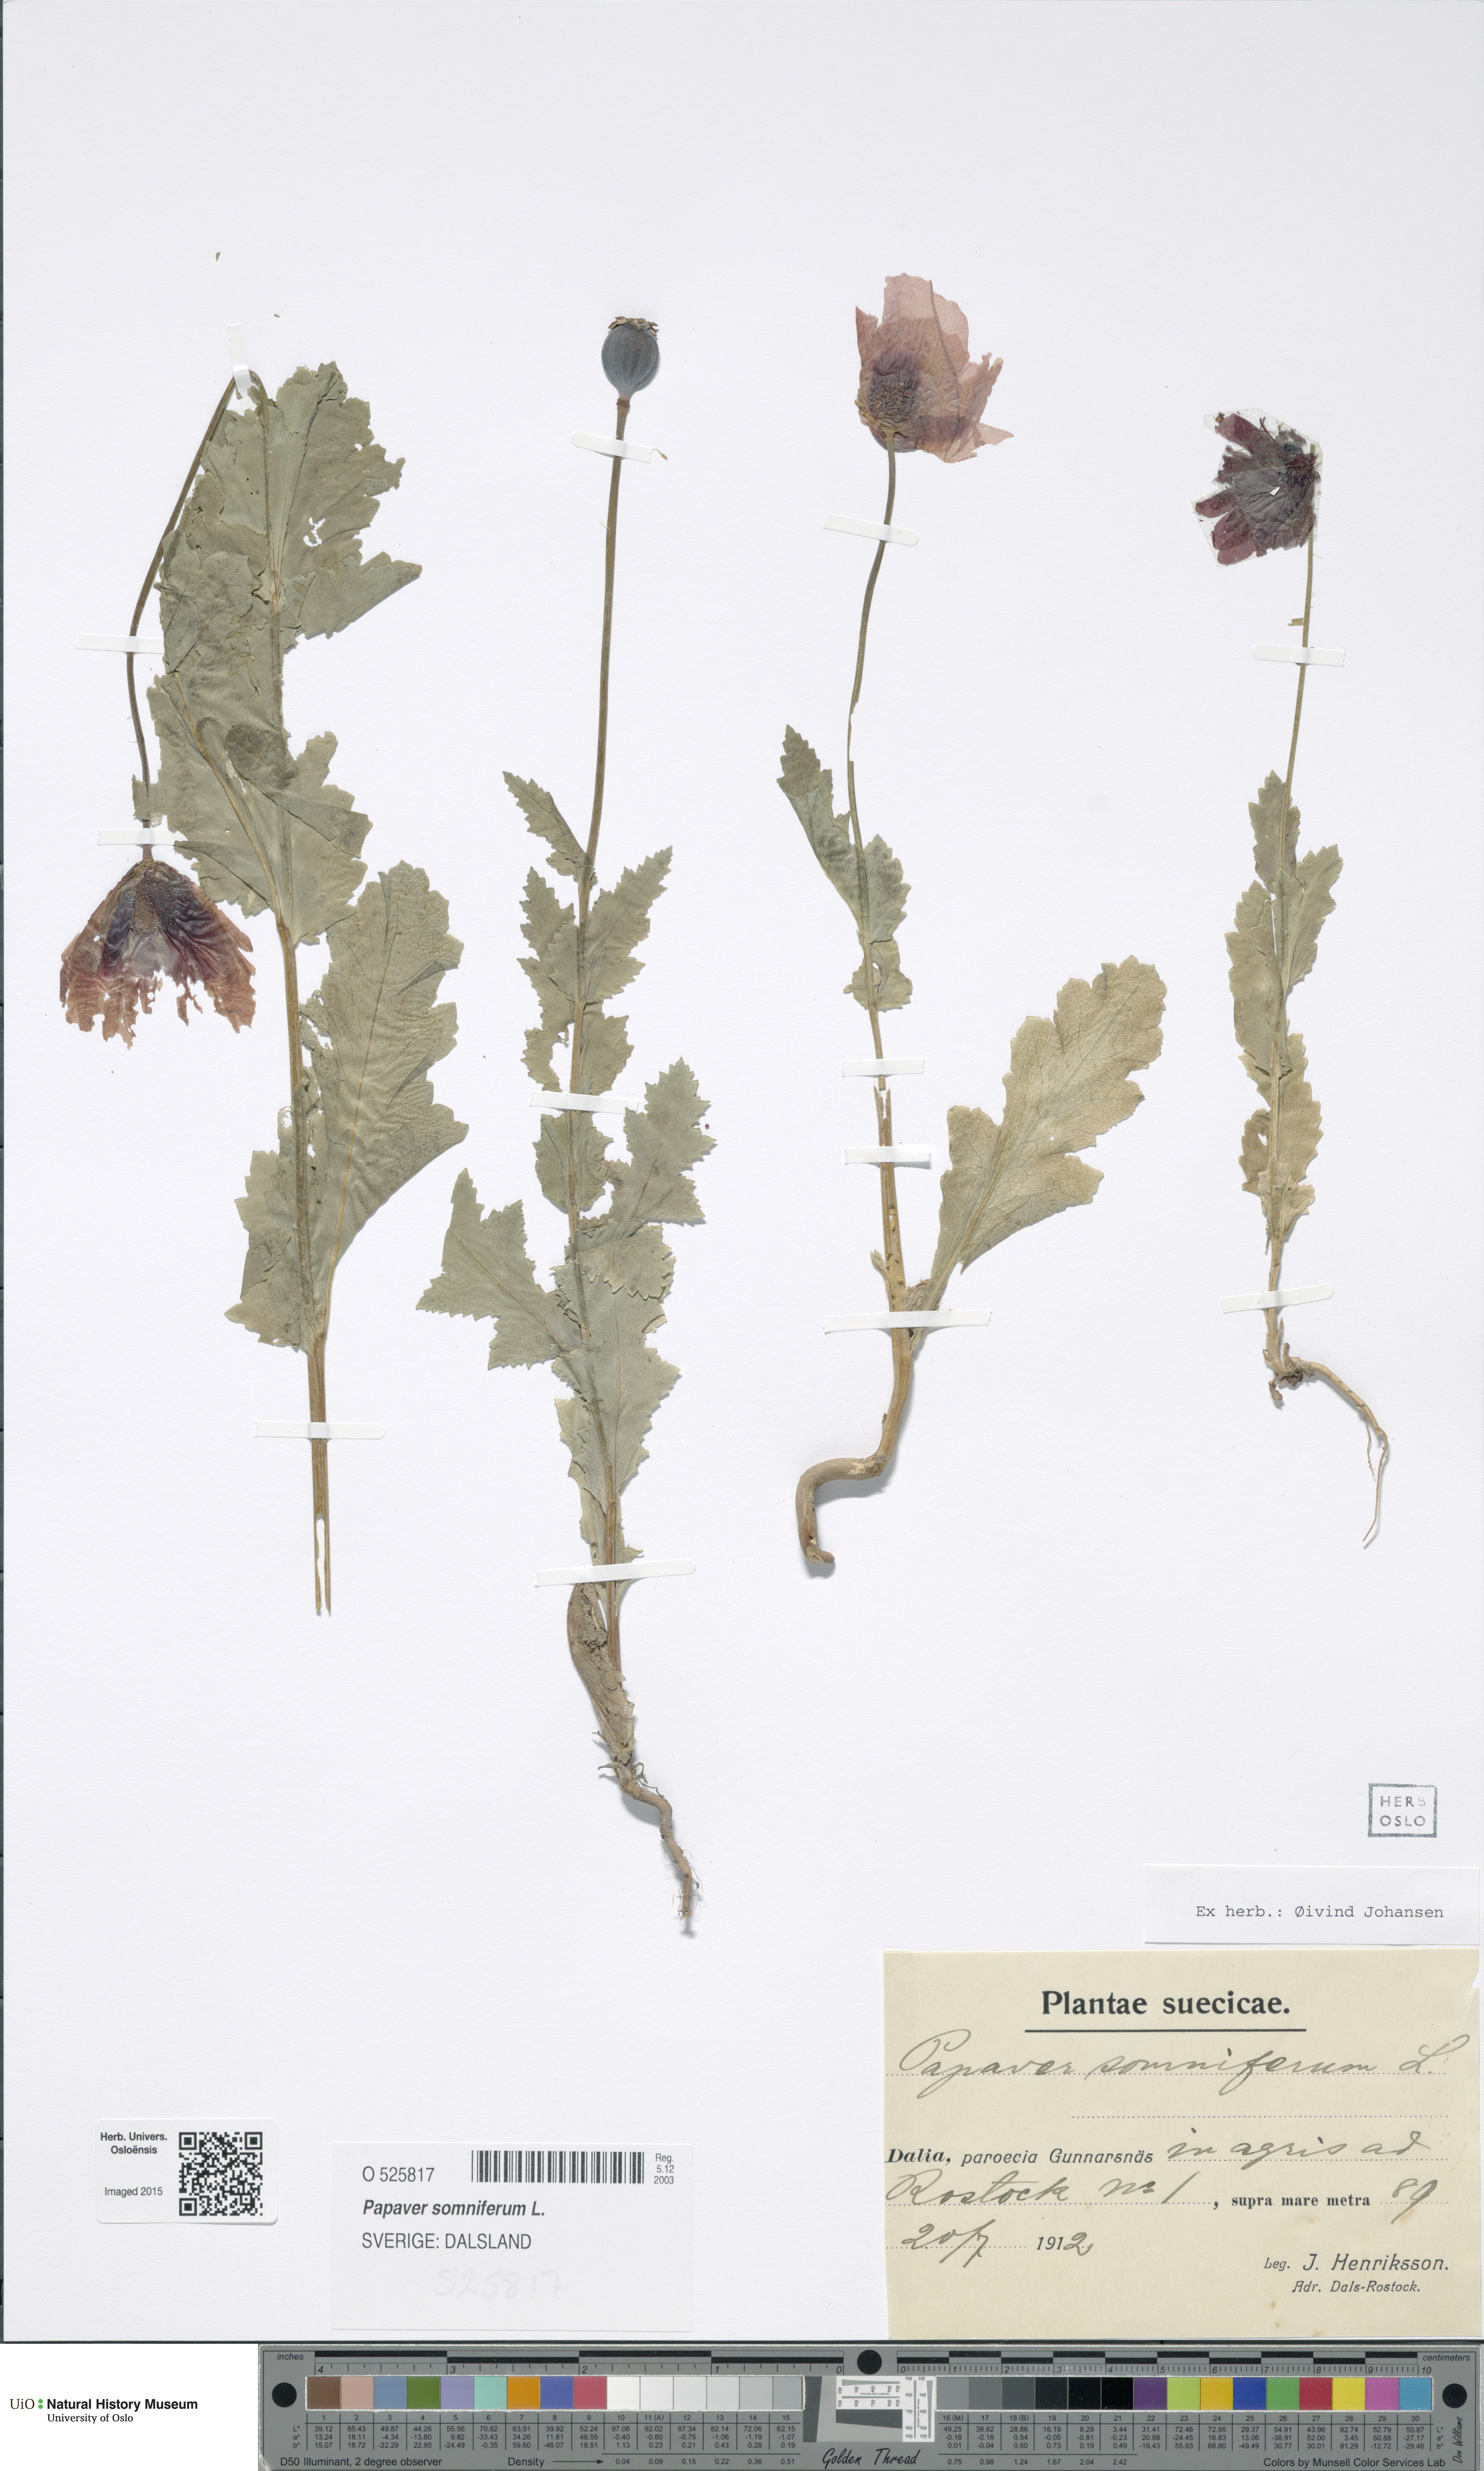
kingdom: Plantae
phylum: Tracheophyta
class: Magnoliopsida
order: Ranunculales
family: Papaveraceae
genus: Papaver
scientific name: Papaver somniferum
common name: Opium poppy
